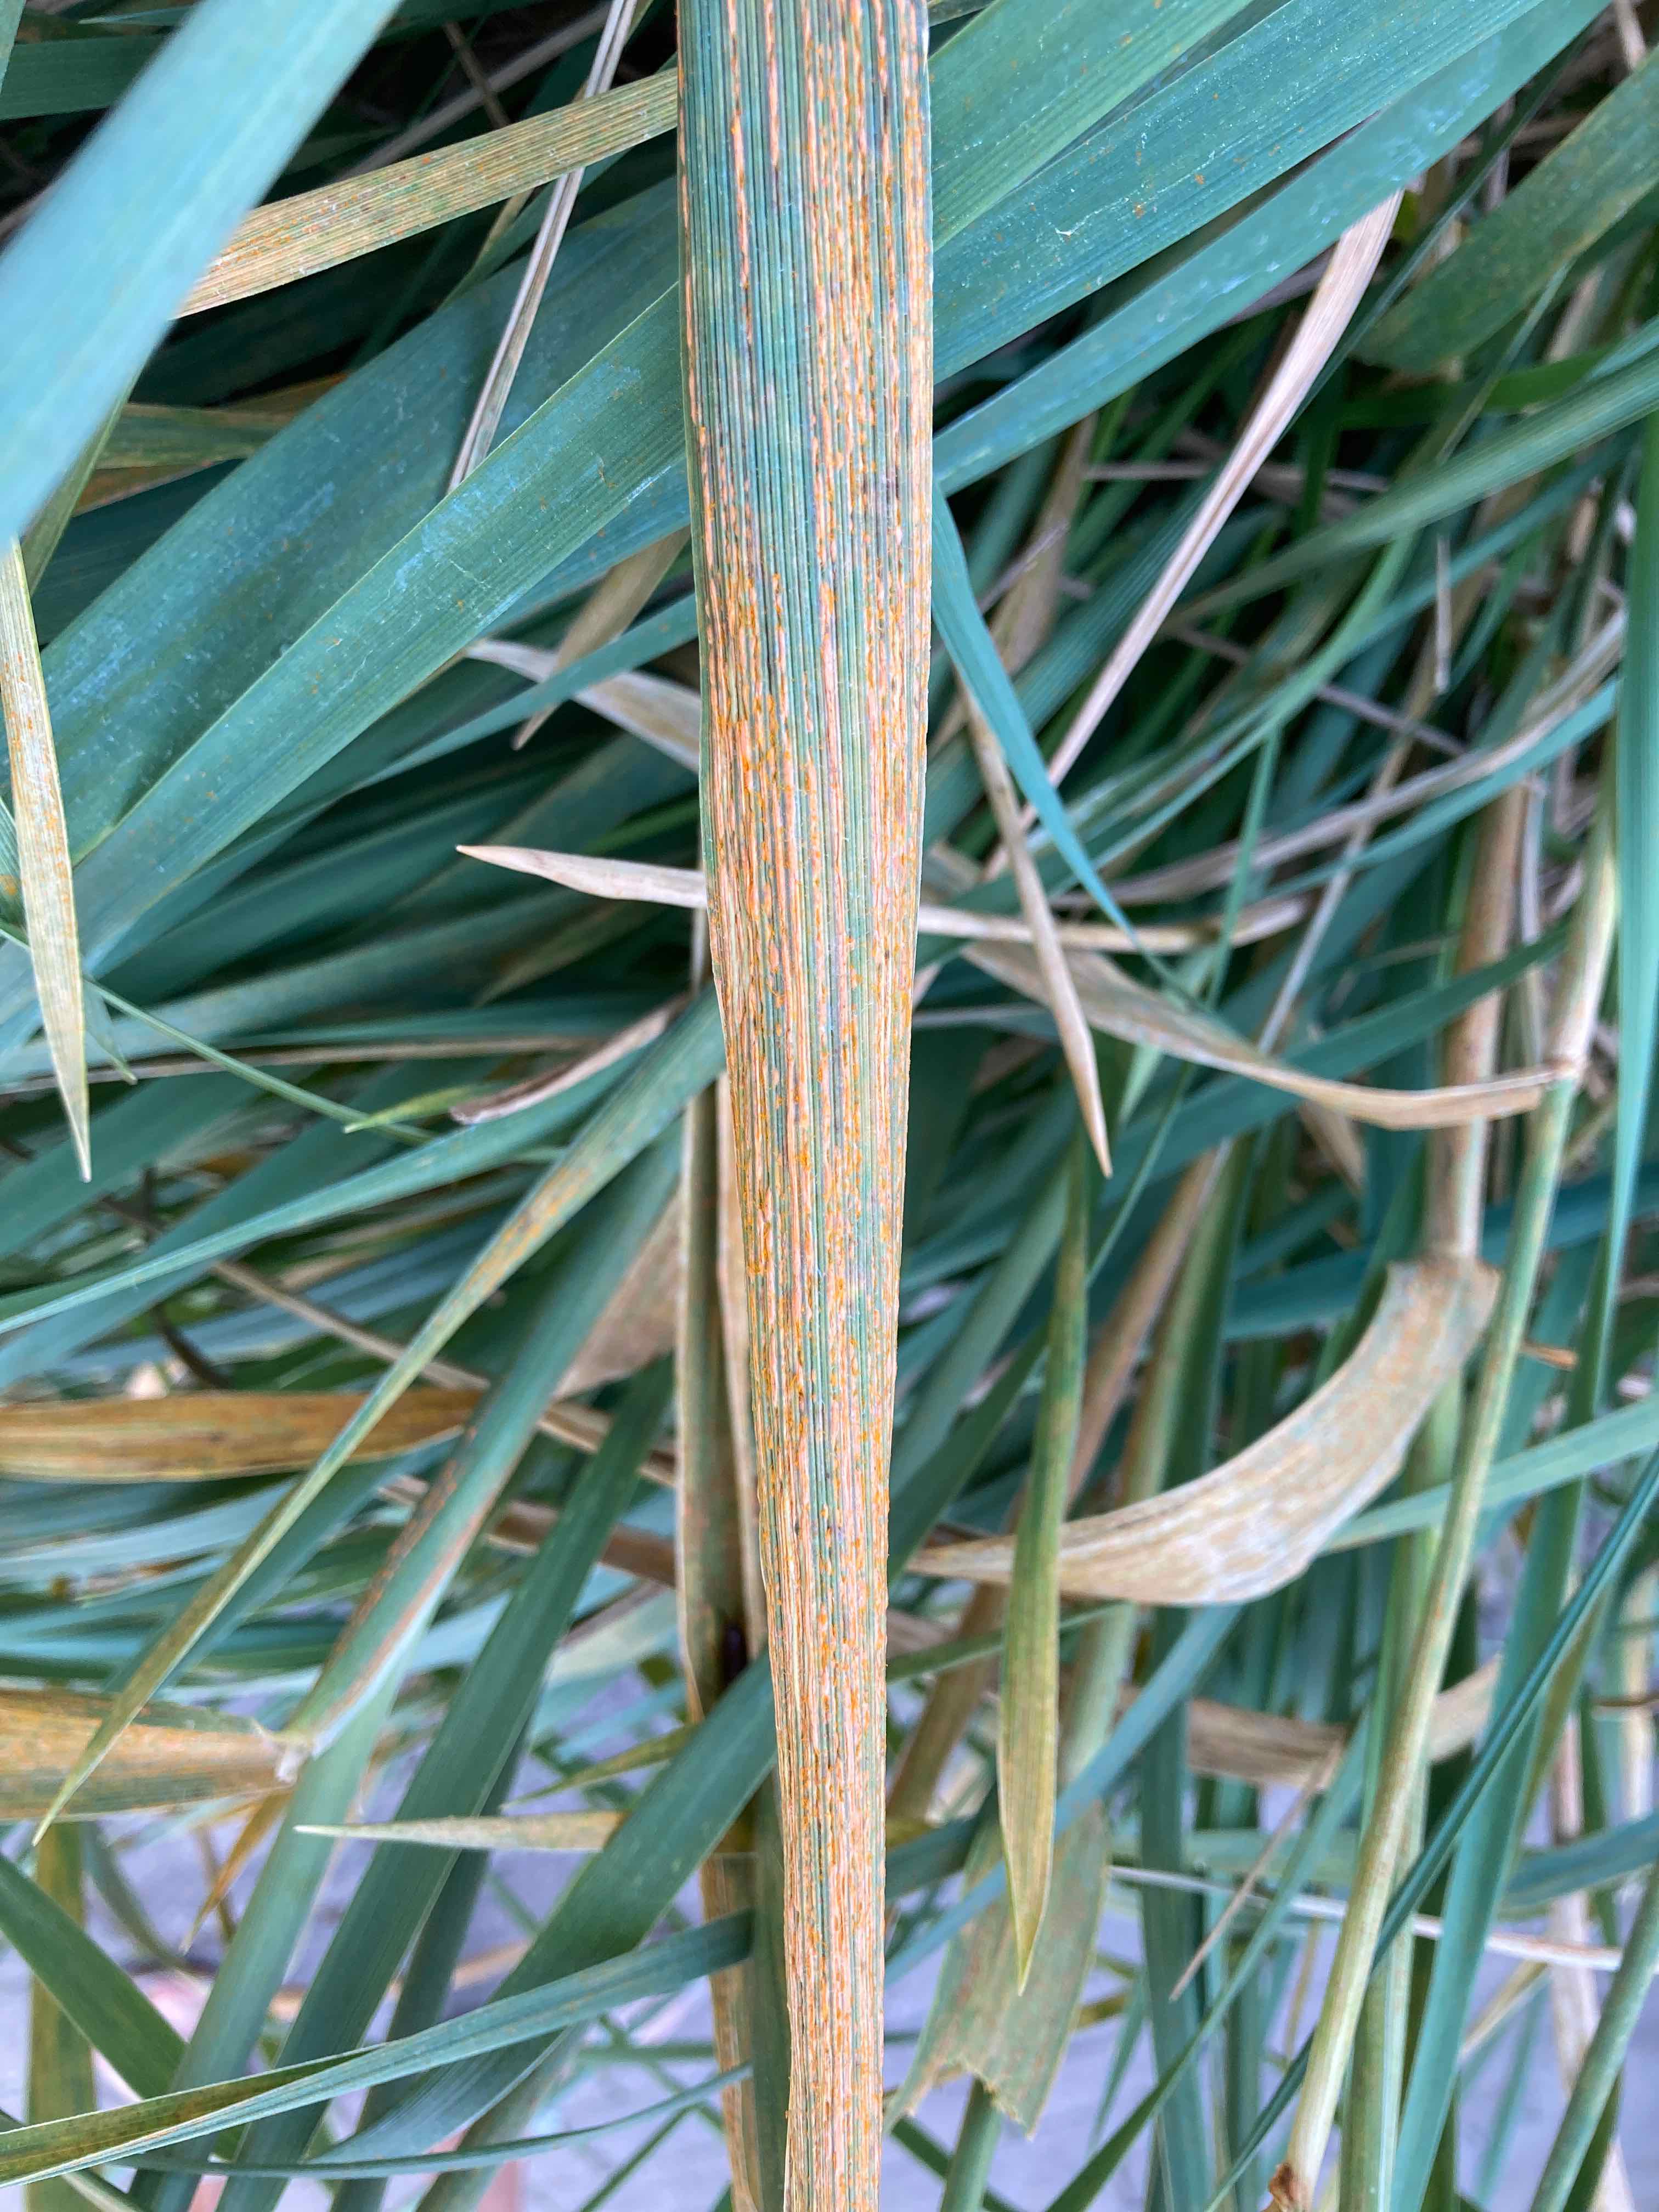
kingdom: Fungi
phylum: Basidiomycota
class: Pucciniomycetes
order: Pucciniales
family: Pucciniaceae
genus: Puccinia
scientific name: Puccinia
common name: tvecellerust
